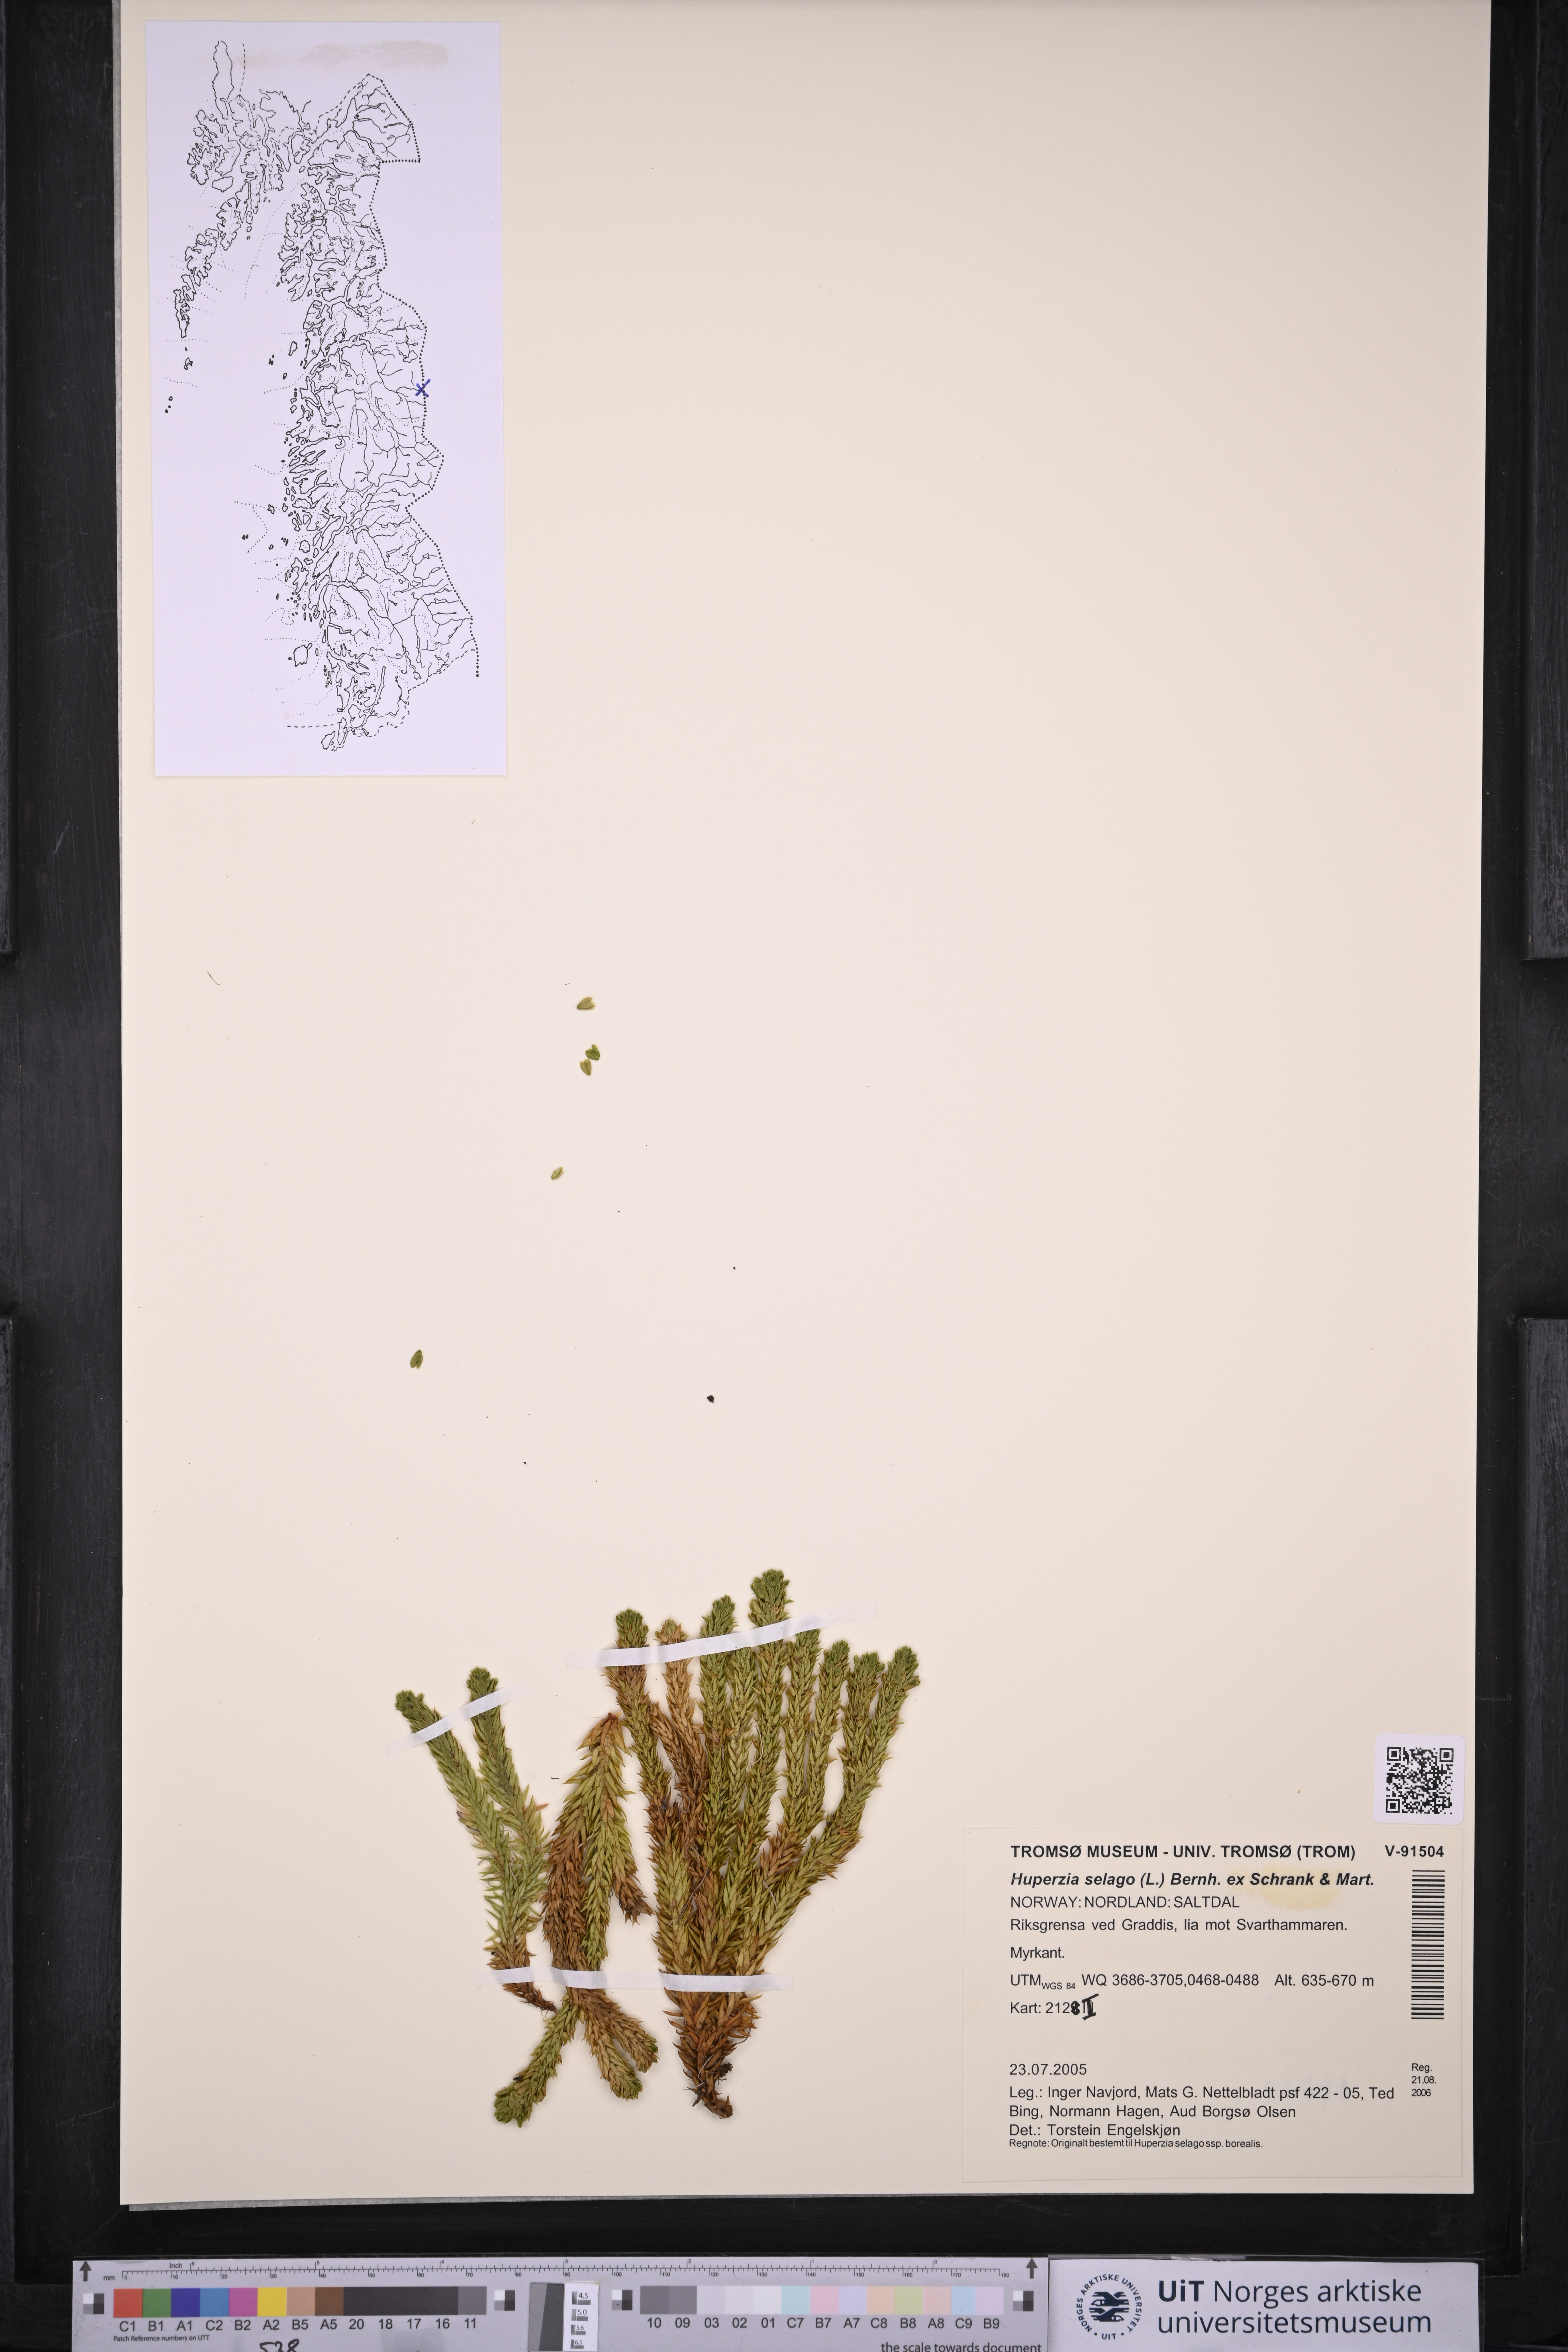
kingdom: Plantae
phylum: Tracheophyta
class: Lycopodiopsida
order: Lycopodiales
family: Lycopodiaceae
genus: Huperzia
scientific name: Huperzia selago
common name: Northern firmoss
